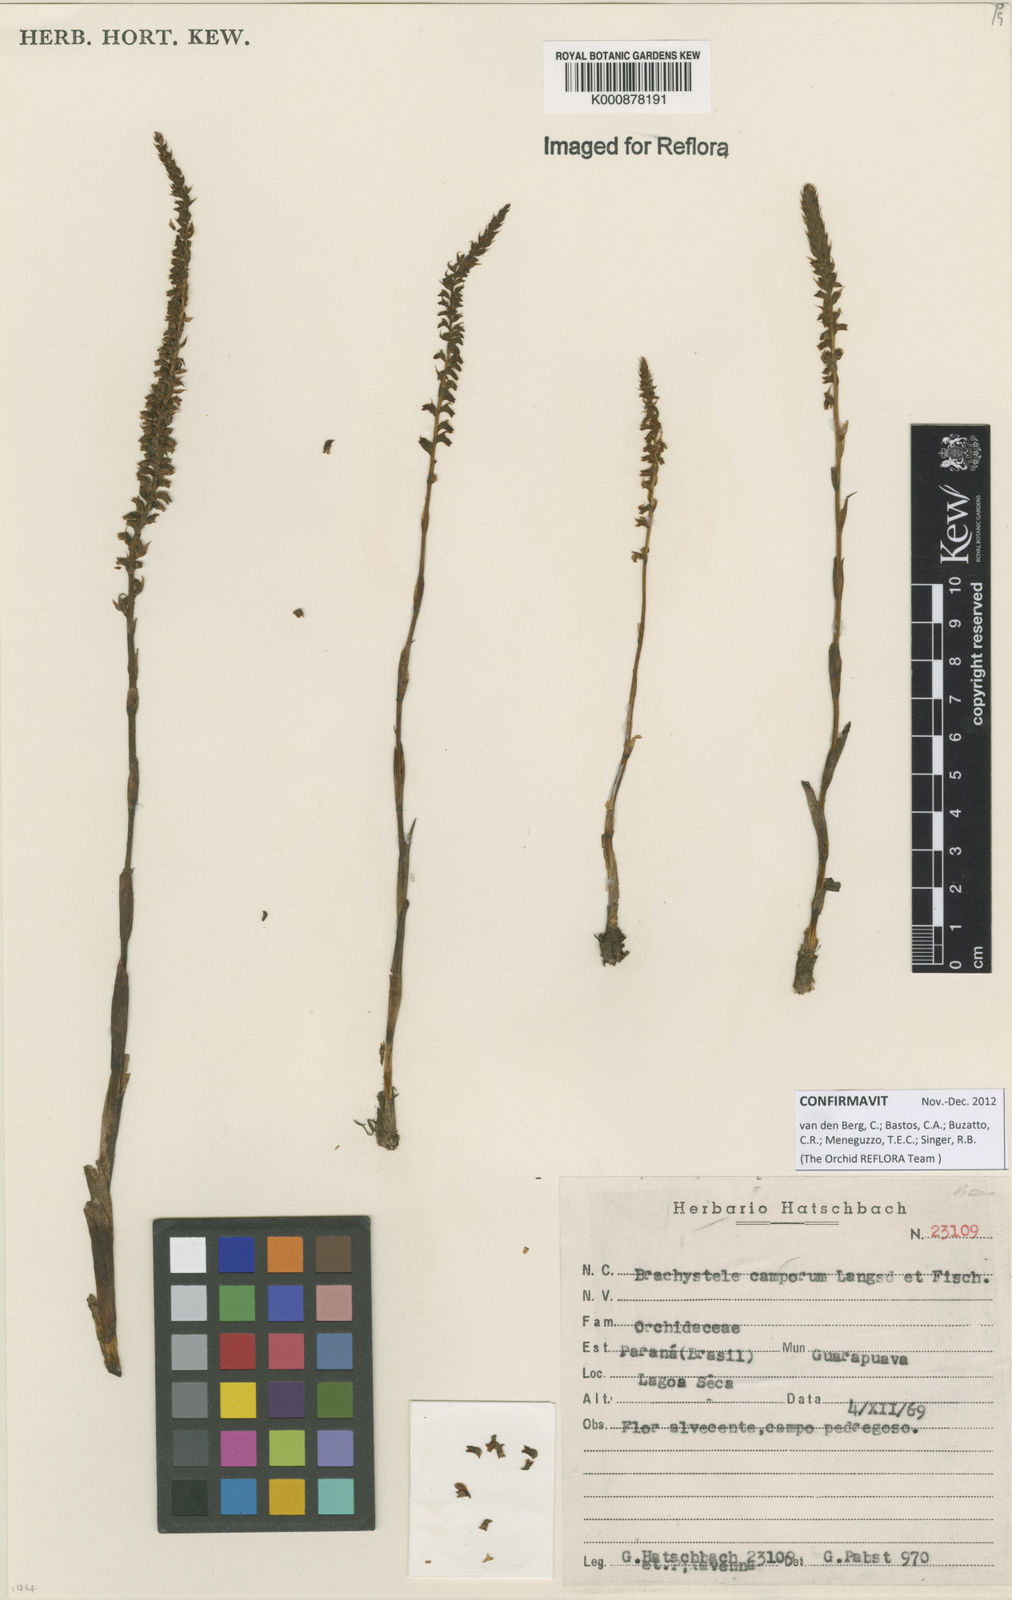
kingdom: Plantae
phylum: Tracheophyta
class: Liliopsida
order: Asparagales
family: Orchidaceae
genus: Brachystele
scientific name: Brachystele camporum
